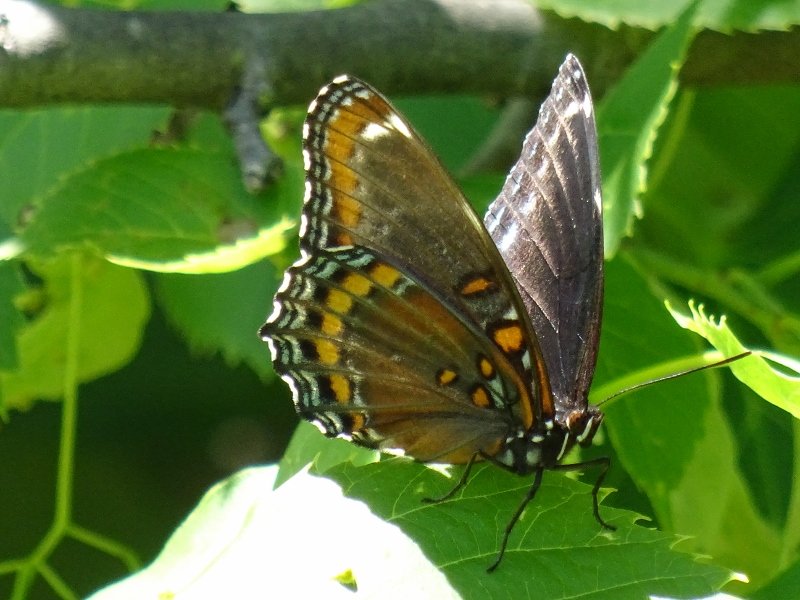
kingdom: Animalia
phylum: Arthropoda
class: Insecta
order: Lepidoptera
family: Nymphalidae
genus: Limenitis
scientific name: Limenitis astyanax
